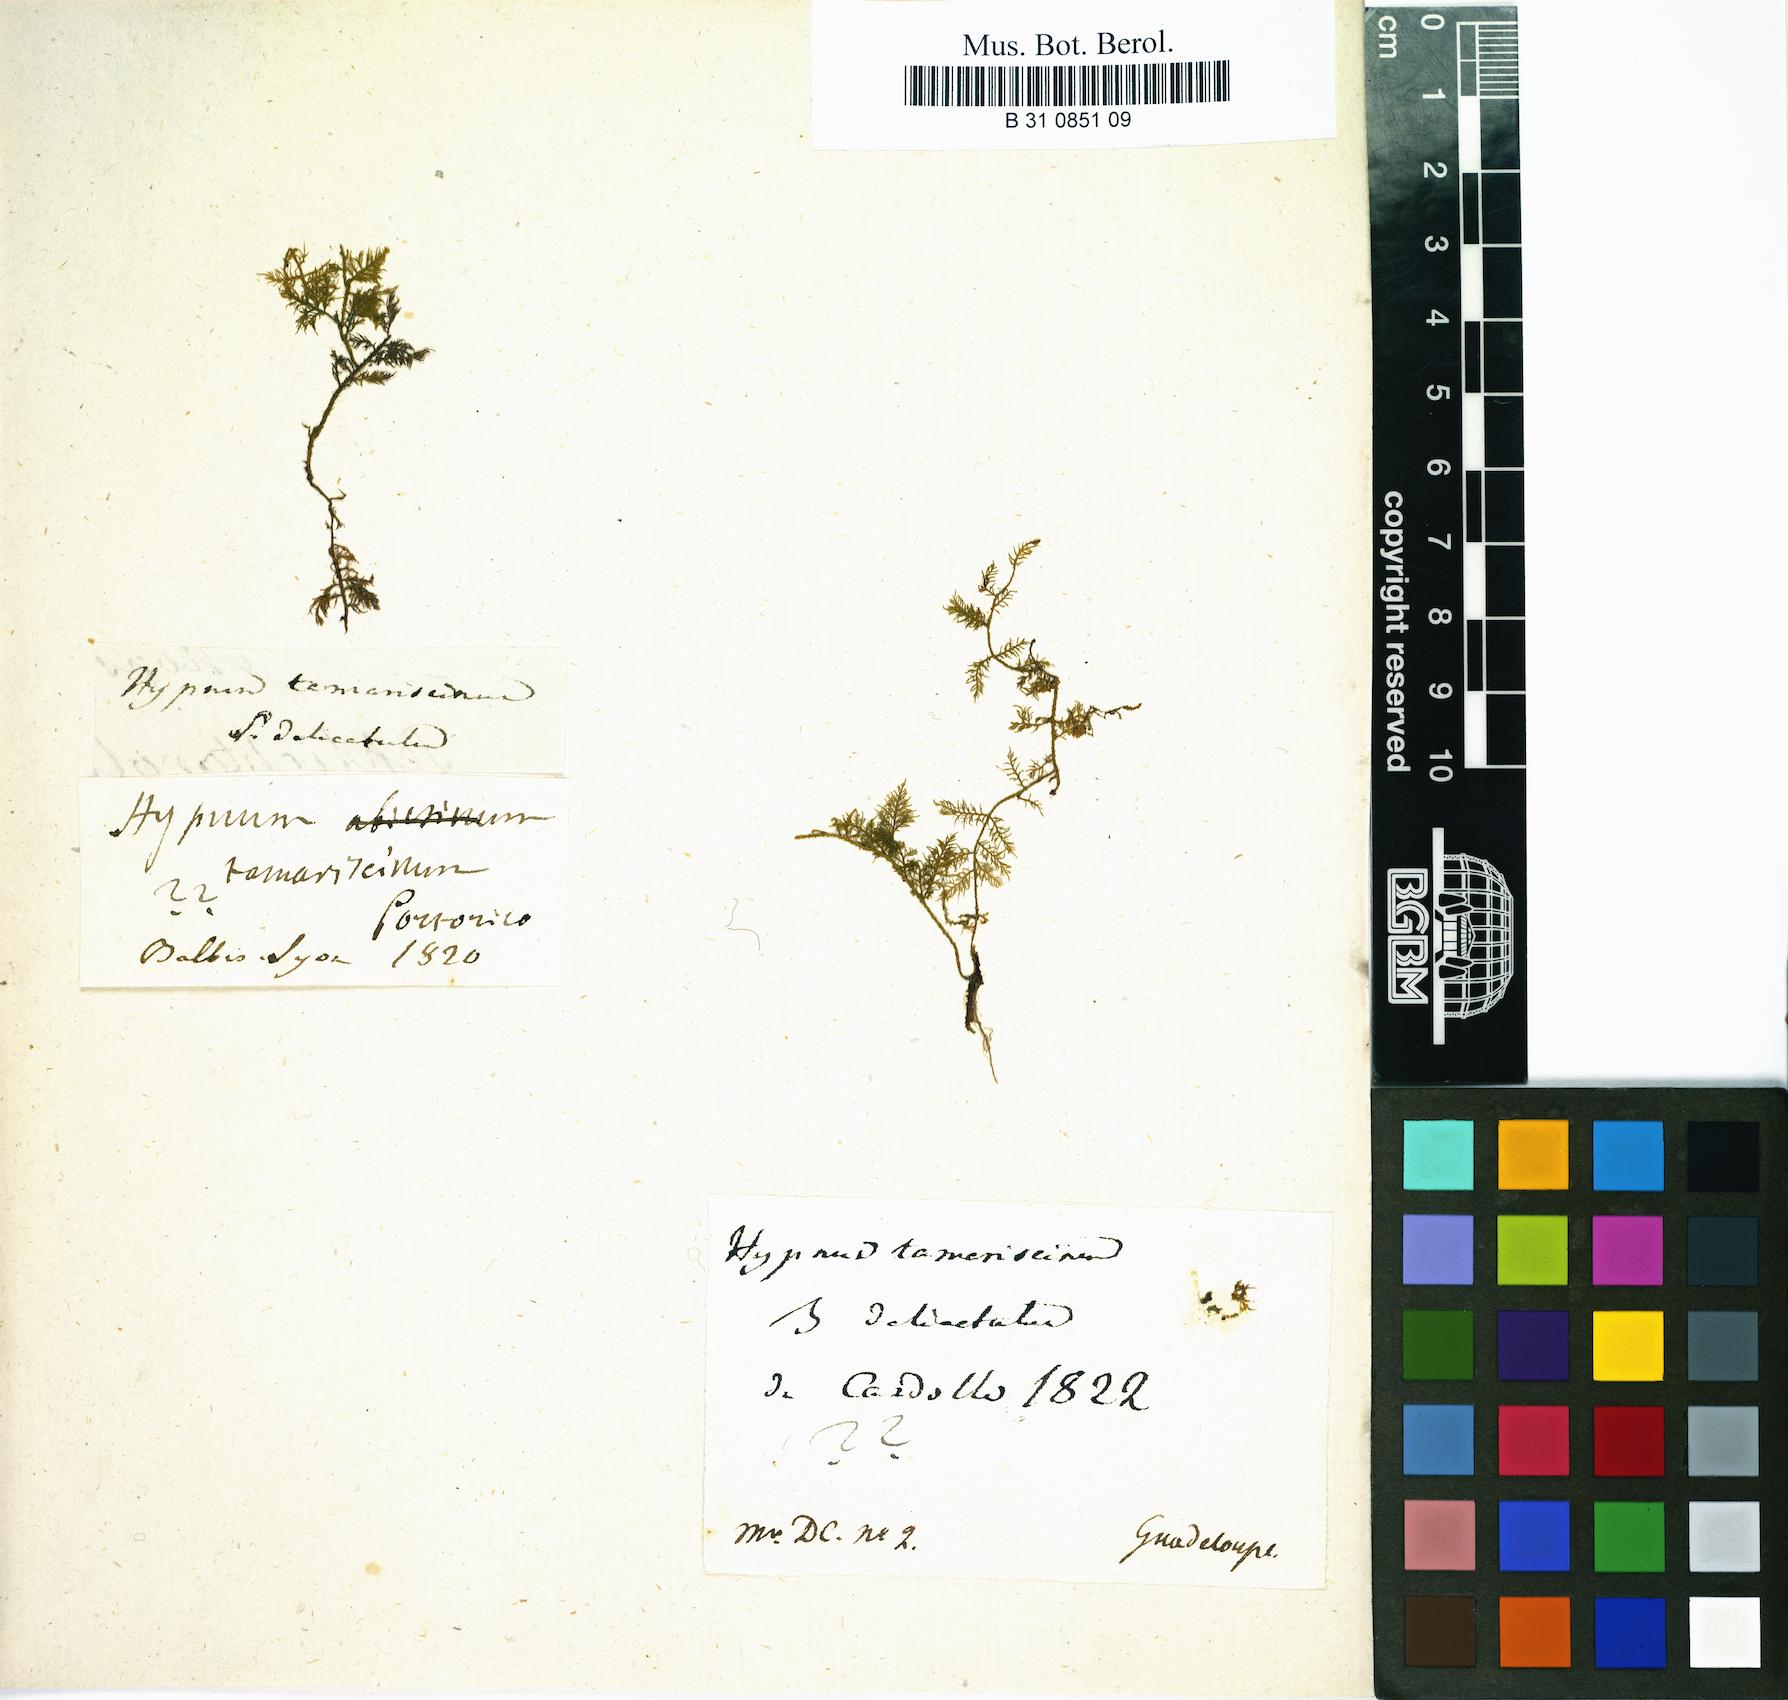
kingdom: Plantae
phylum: Bryophyta
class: Bryopsida
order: Hypnales
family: Thuidiaceae
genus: Thuidium
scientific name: Thuidium tamariscinum
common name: Common tamarisk-moss
